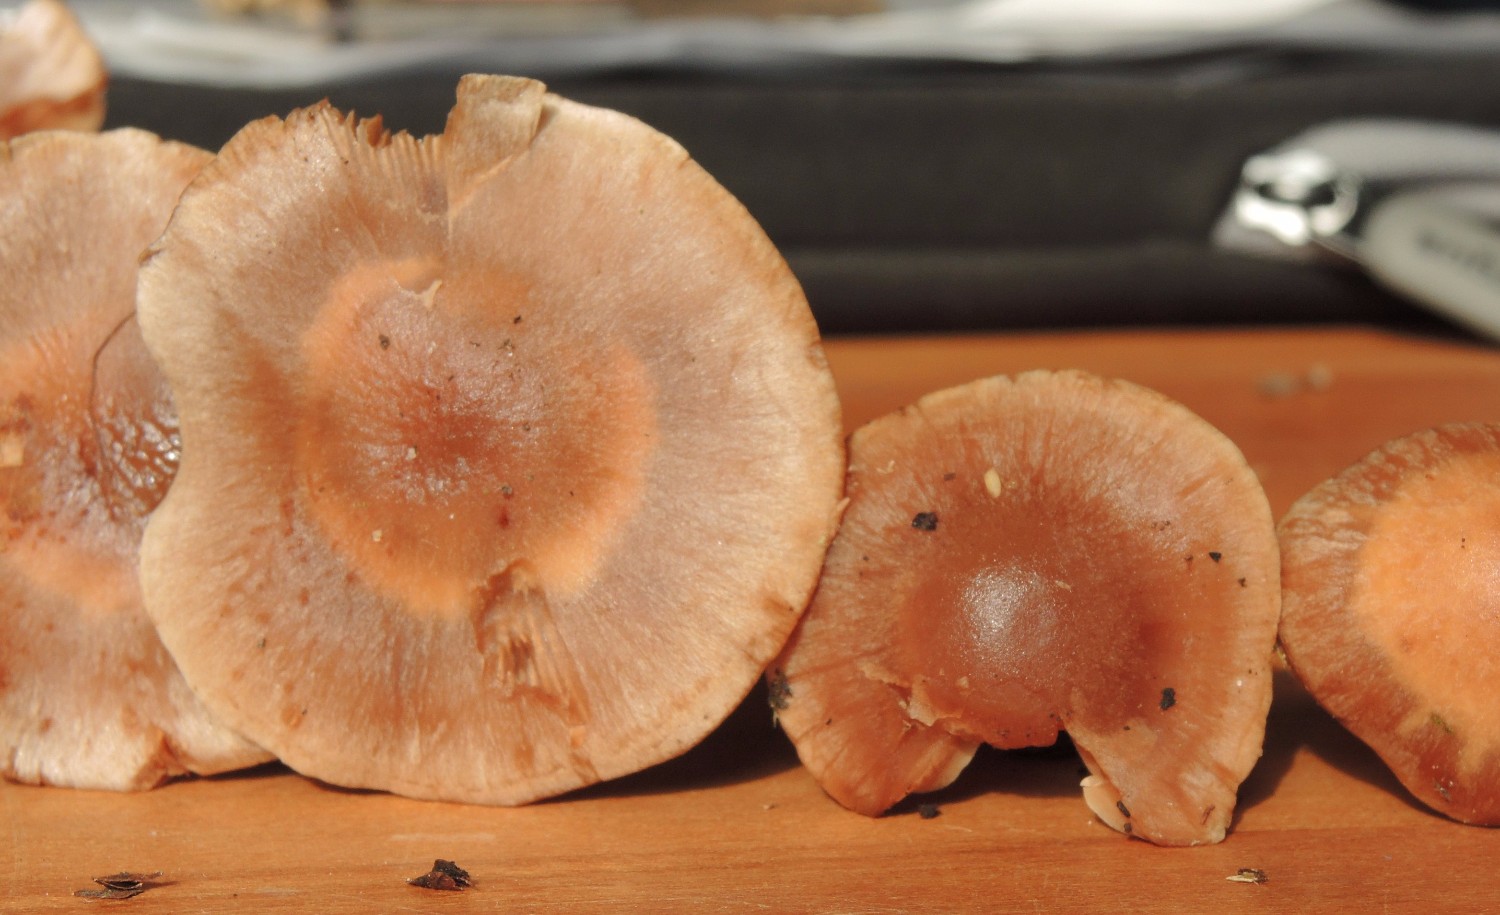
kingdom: Fungi
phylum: Basidiomycota
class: Agaricomycetes
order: Agaricales
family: Cortinariaceae
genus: Cortinarius
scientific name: Cortinarius
